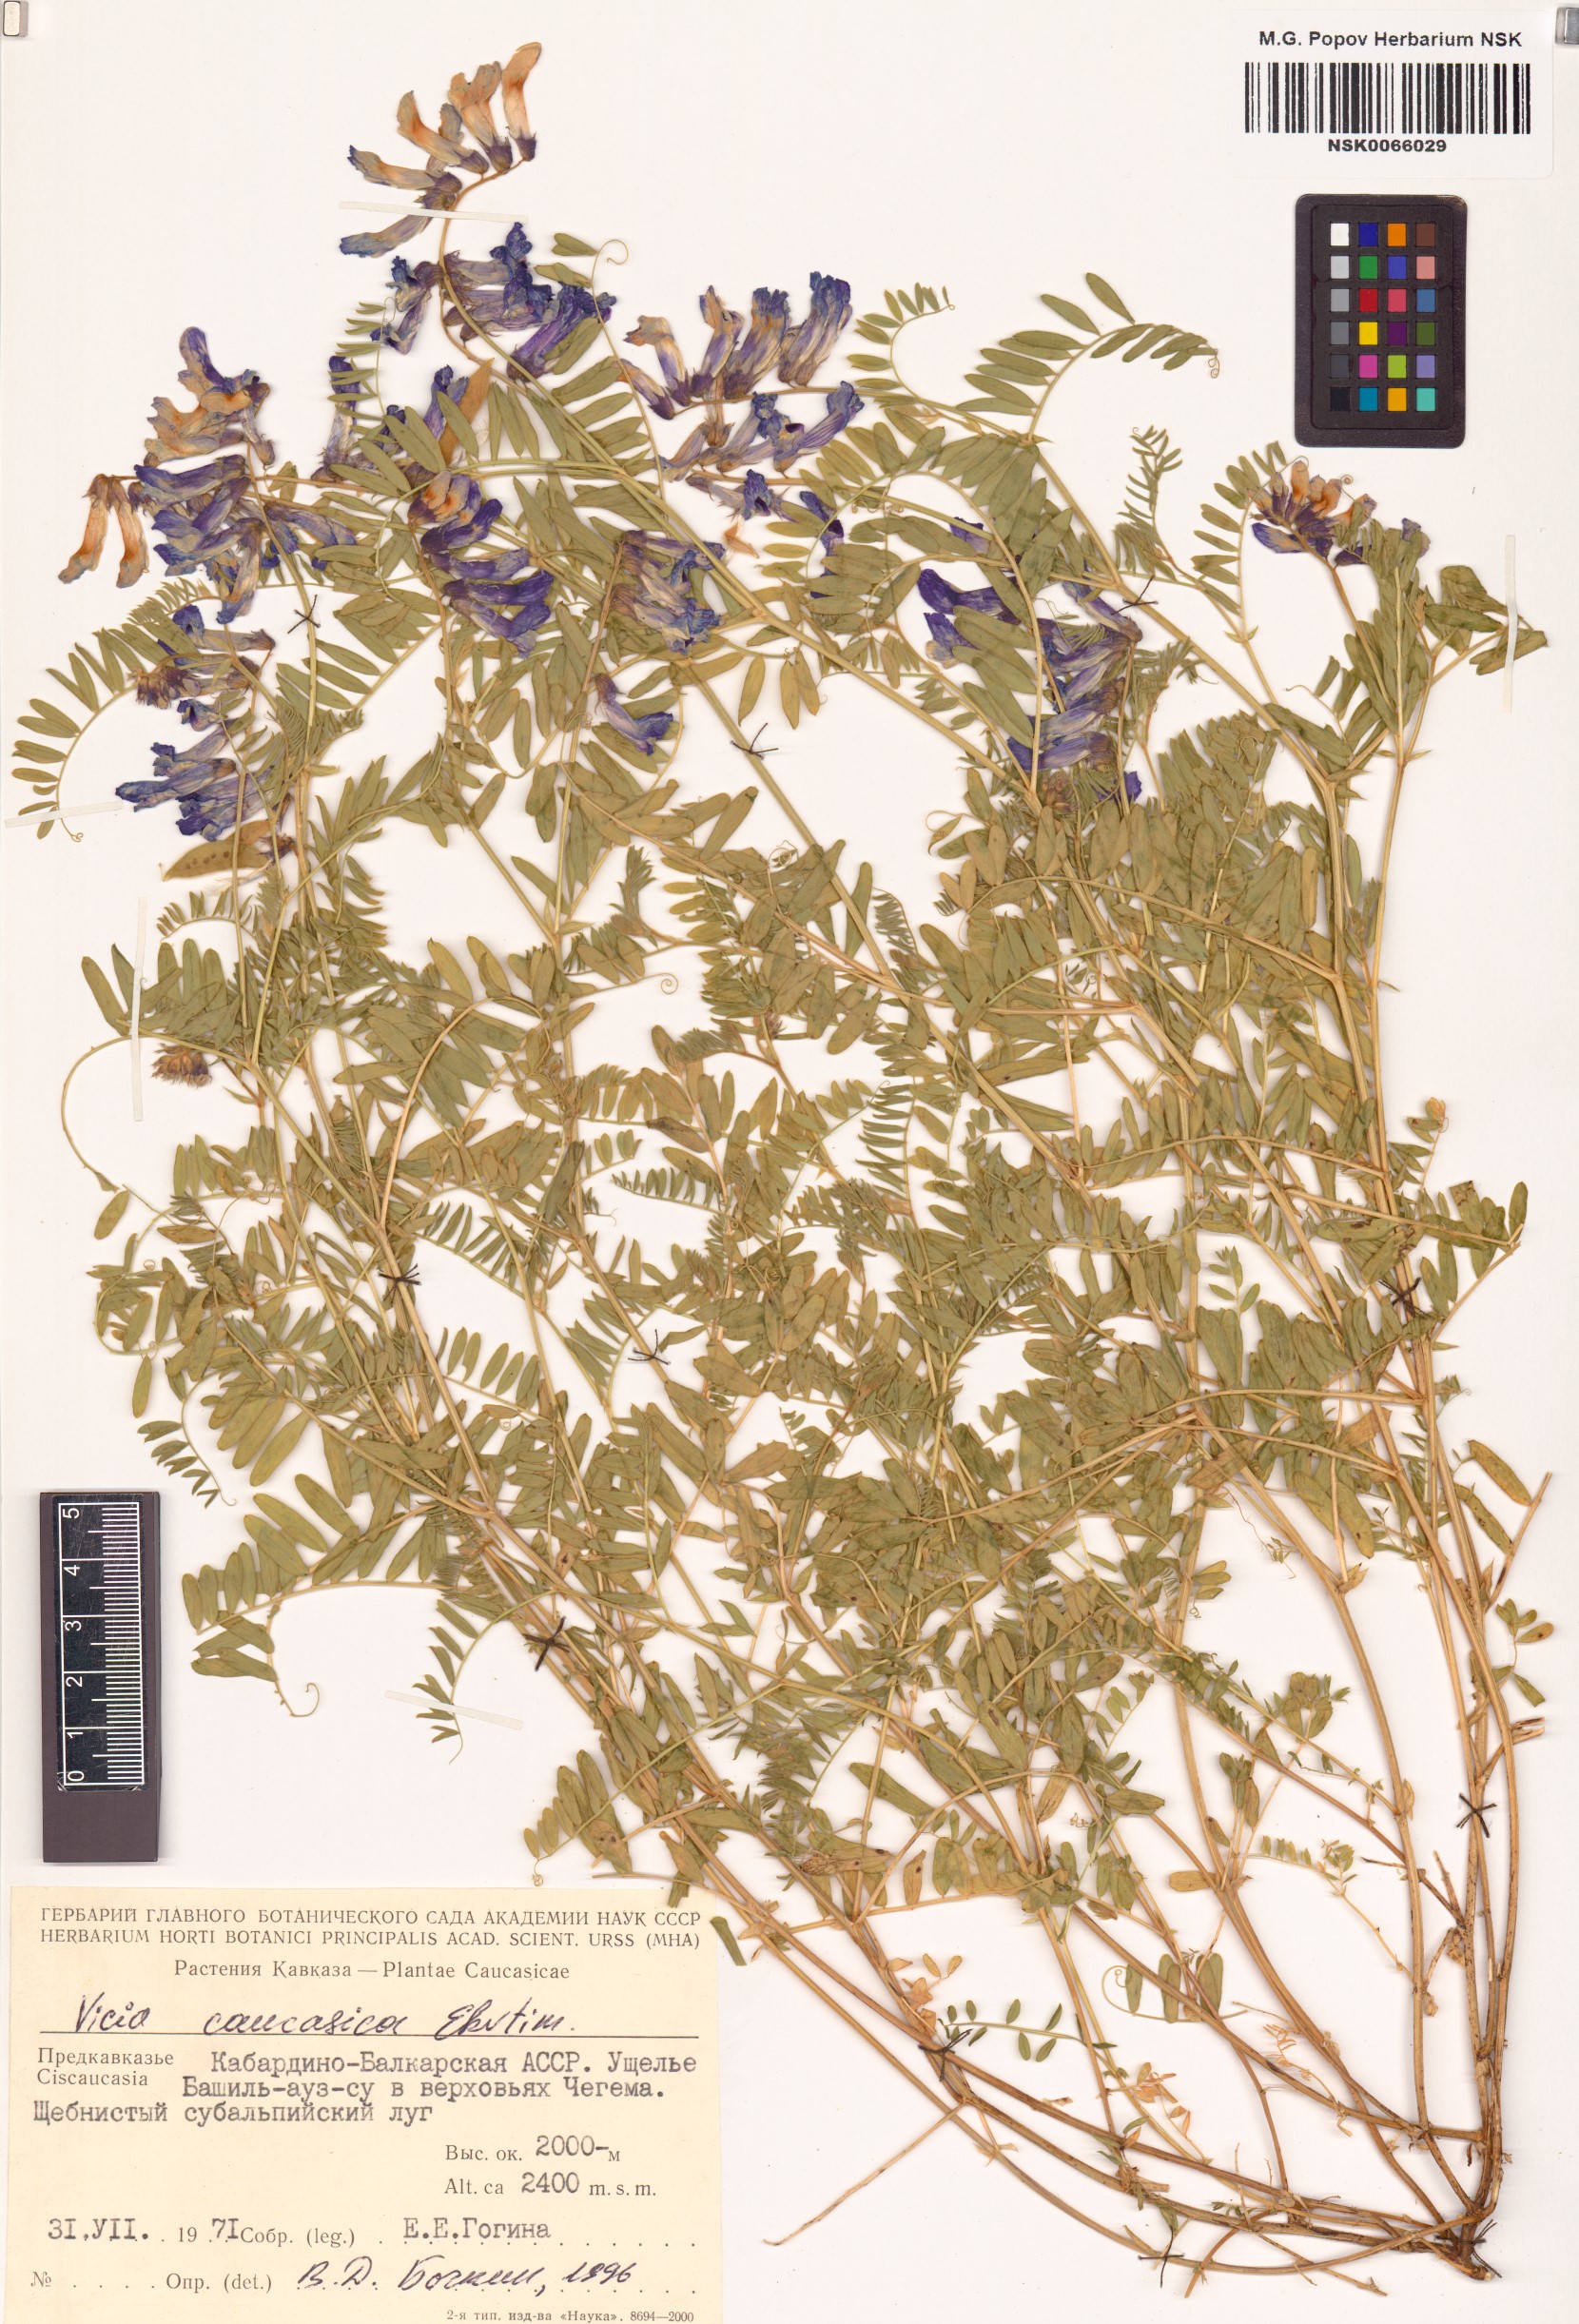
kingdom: Plantae
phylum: Tracheophyta
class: Magnoliopsida
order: Fabales
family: Fabaceae
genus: Vicia
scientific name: Vicia sosnowskyi
